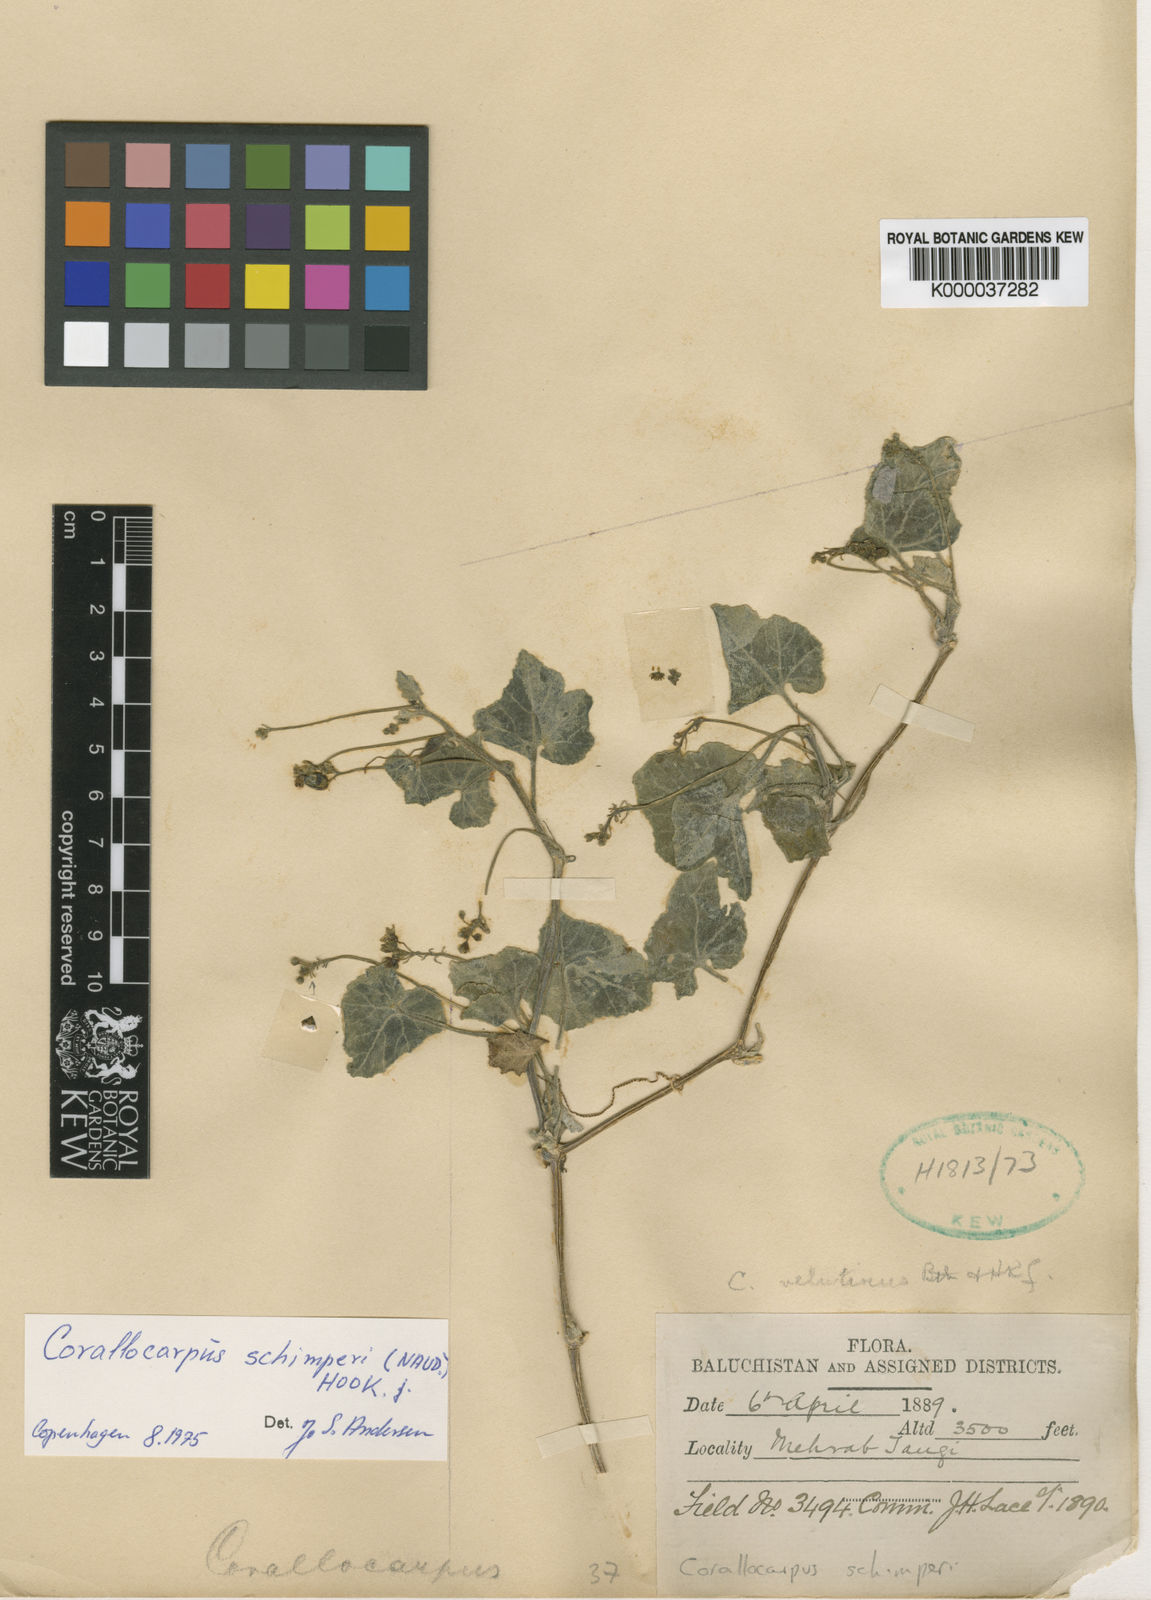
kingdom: Plantae
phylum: Tracheophyta
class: Magnoliopsida
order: Cucurbitales
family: Cucurbitaceae
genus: Corallocarpus
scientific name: Corallocarpus schimperi
